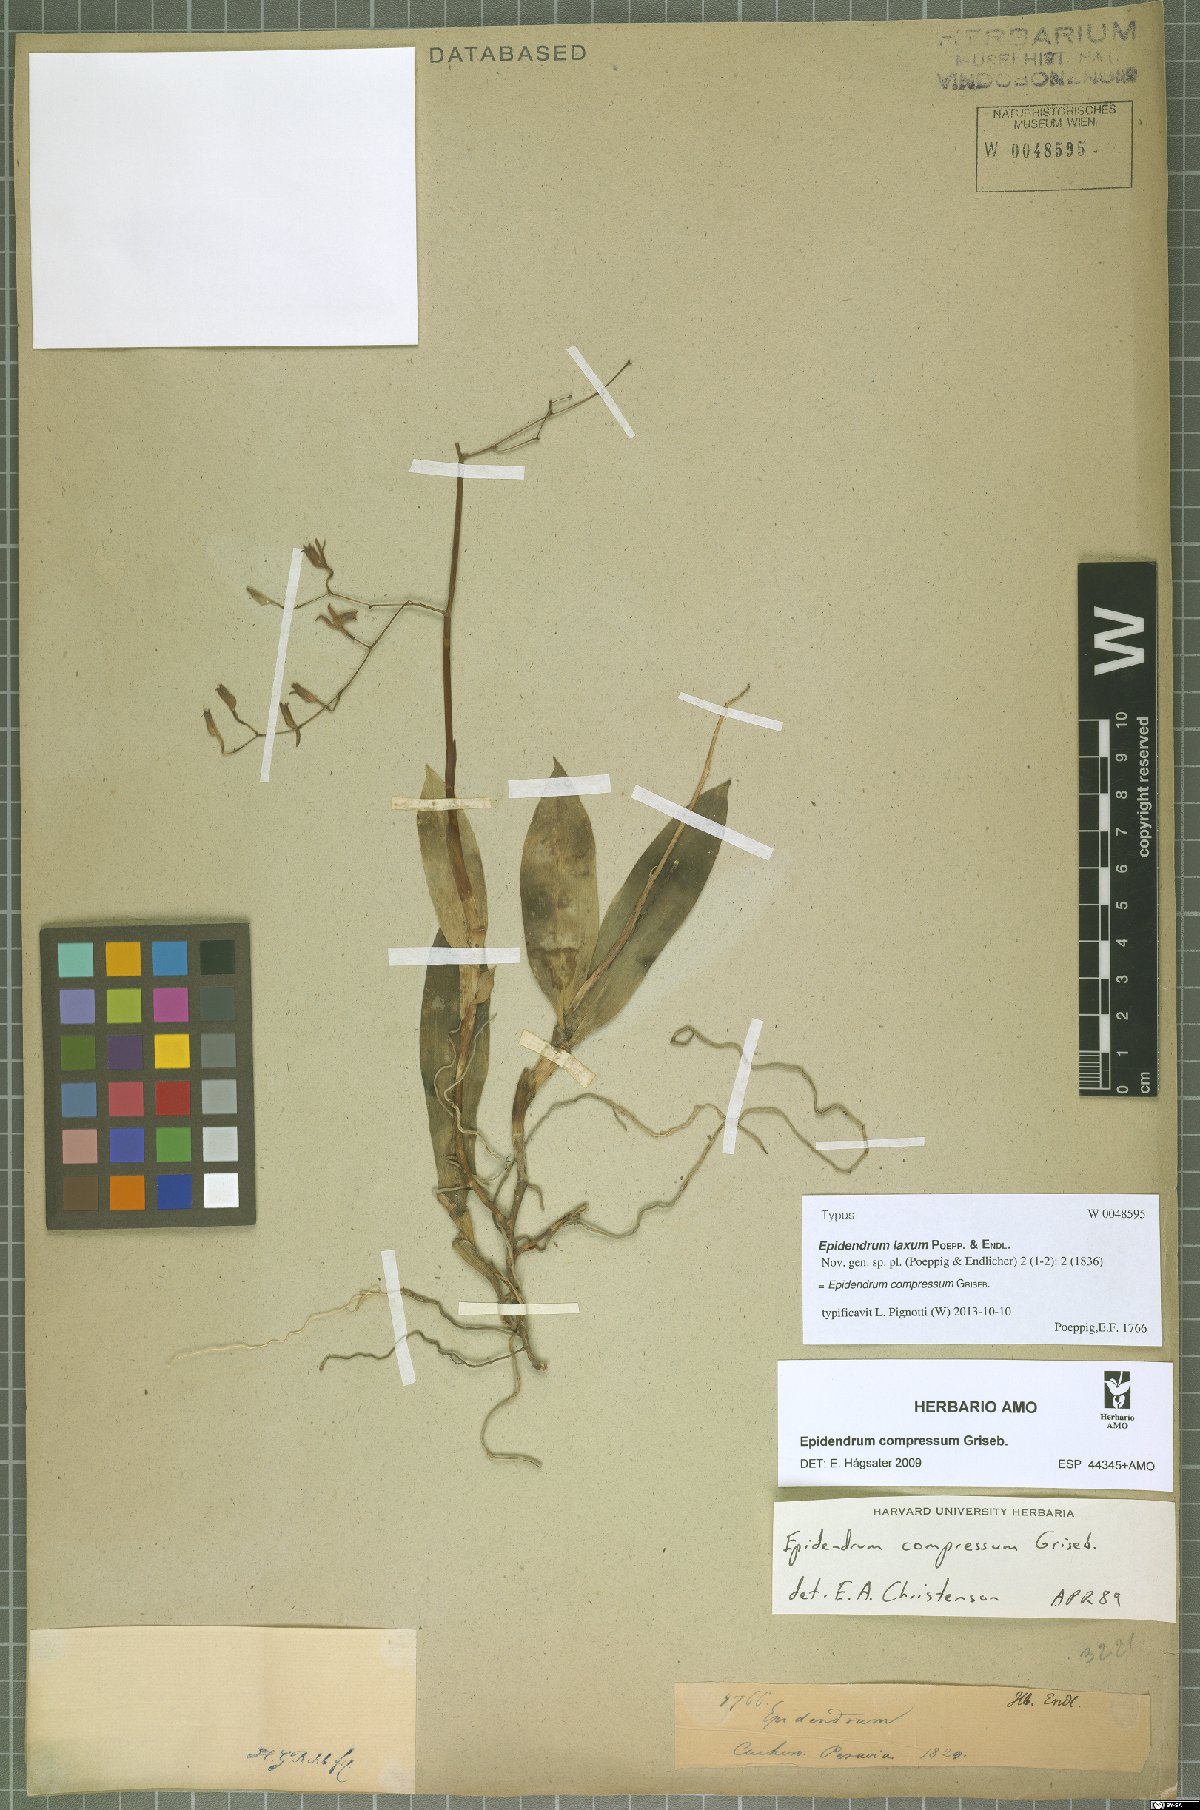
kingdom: Plantae
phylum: Tracheophyta
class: Liliopsida
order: Asparagales
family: Orchidaceae
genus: Epidendrum
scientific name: Epidendrum compressum
